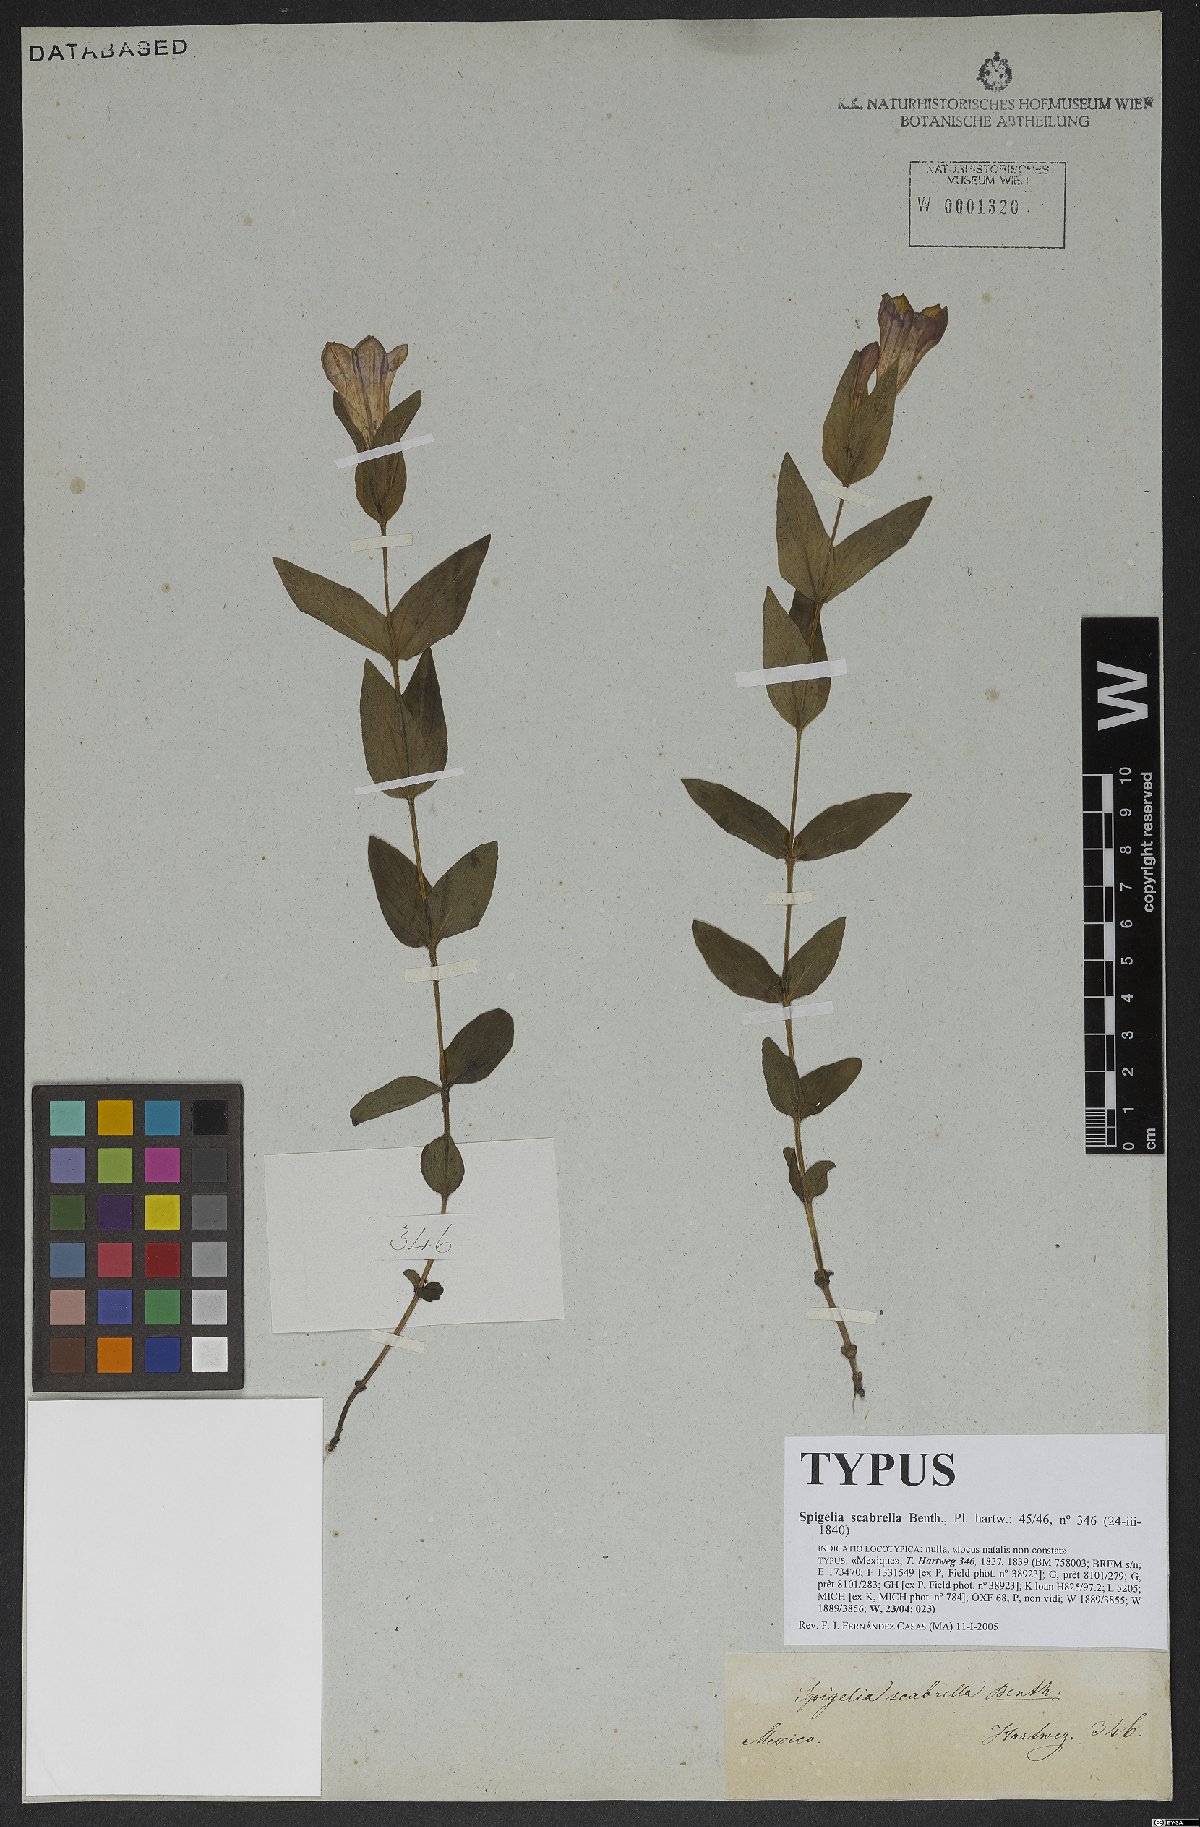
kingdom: Plantae
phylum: Tracheophyta
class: Magnoliopsida
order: Gentianales
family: Loganiaceae
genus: Spigelia
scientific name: Spigelia scabrella
